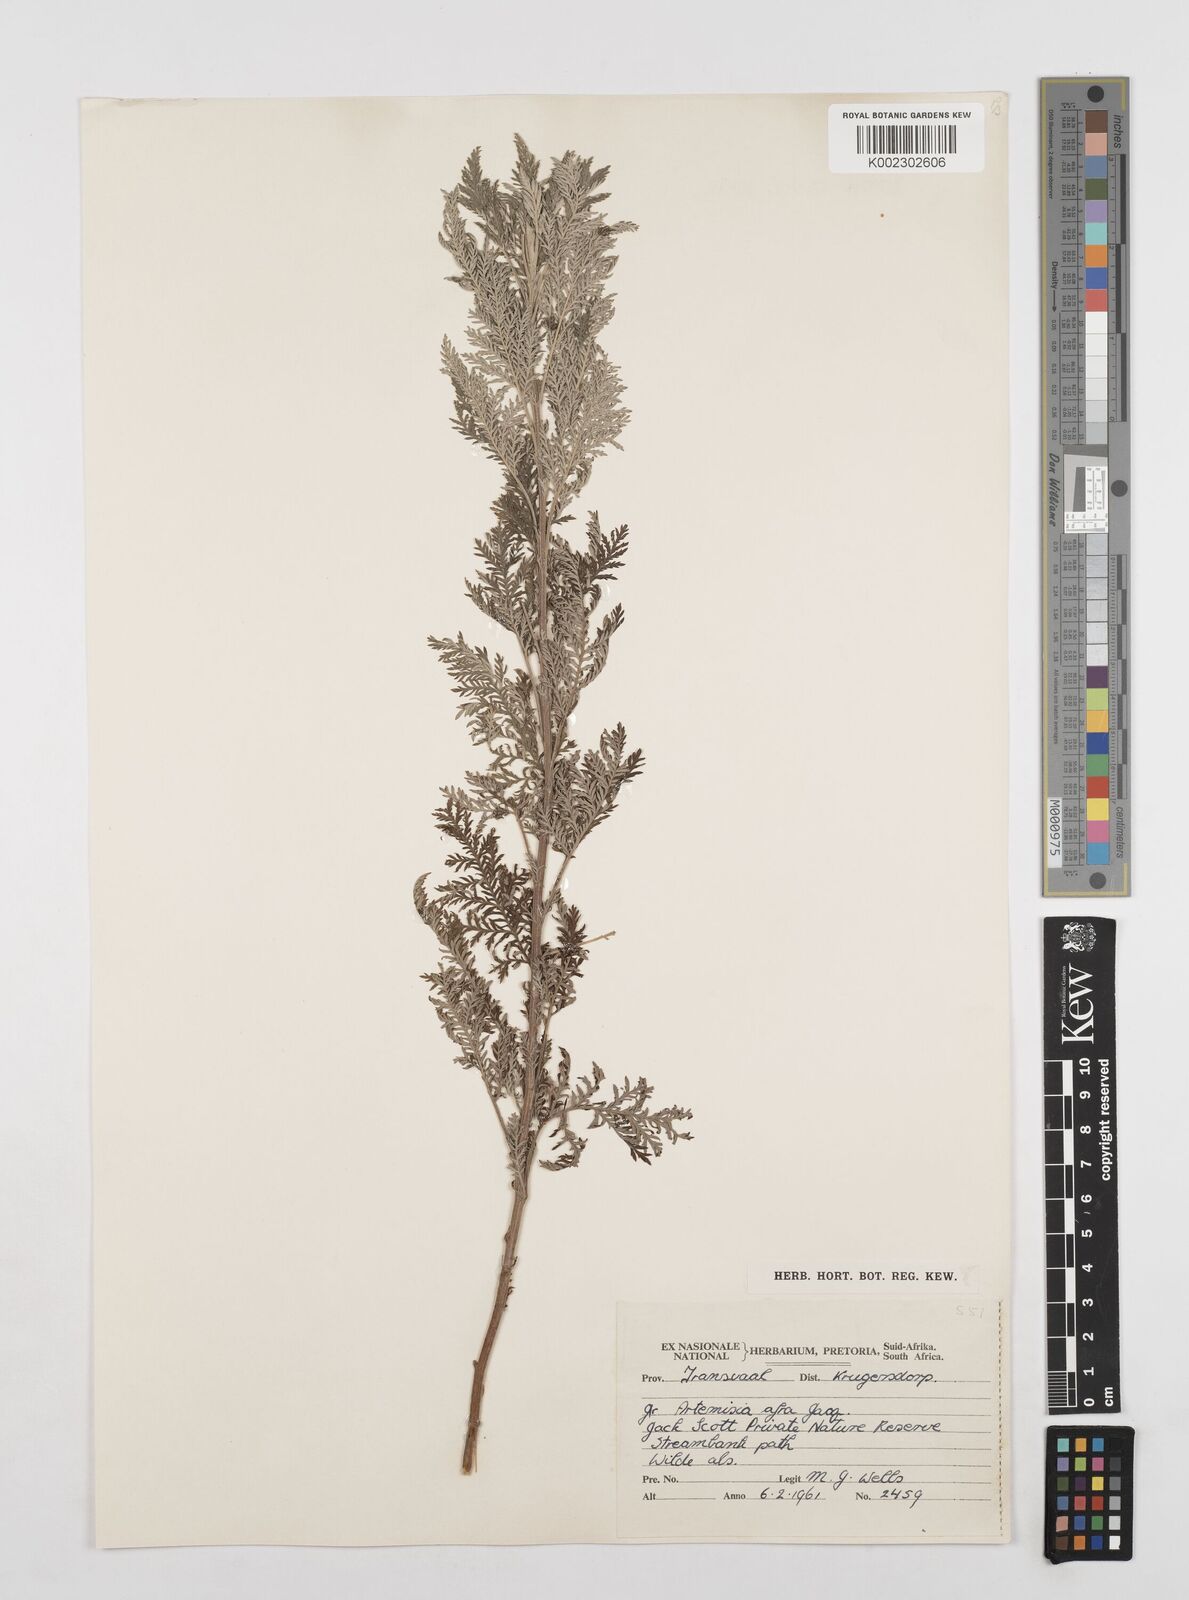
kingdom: Plantae
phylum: Tracheophyta
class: Magnoliopsida
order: Asterales
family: Asteraceae
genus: Artemisia
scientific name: Artemisia afra
